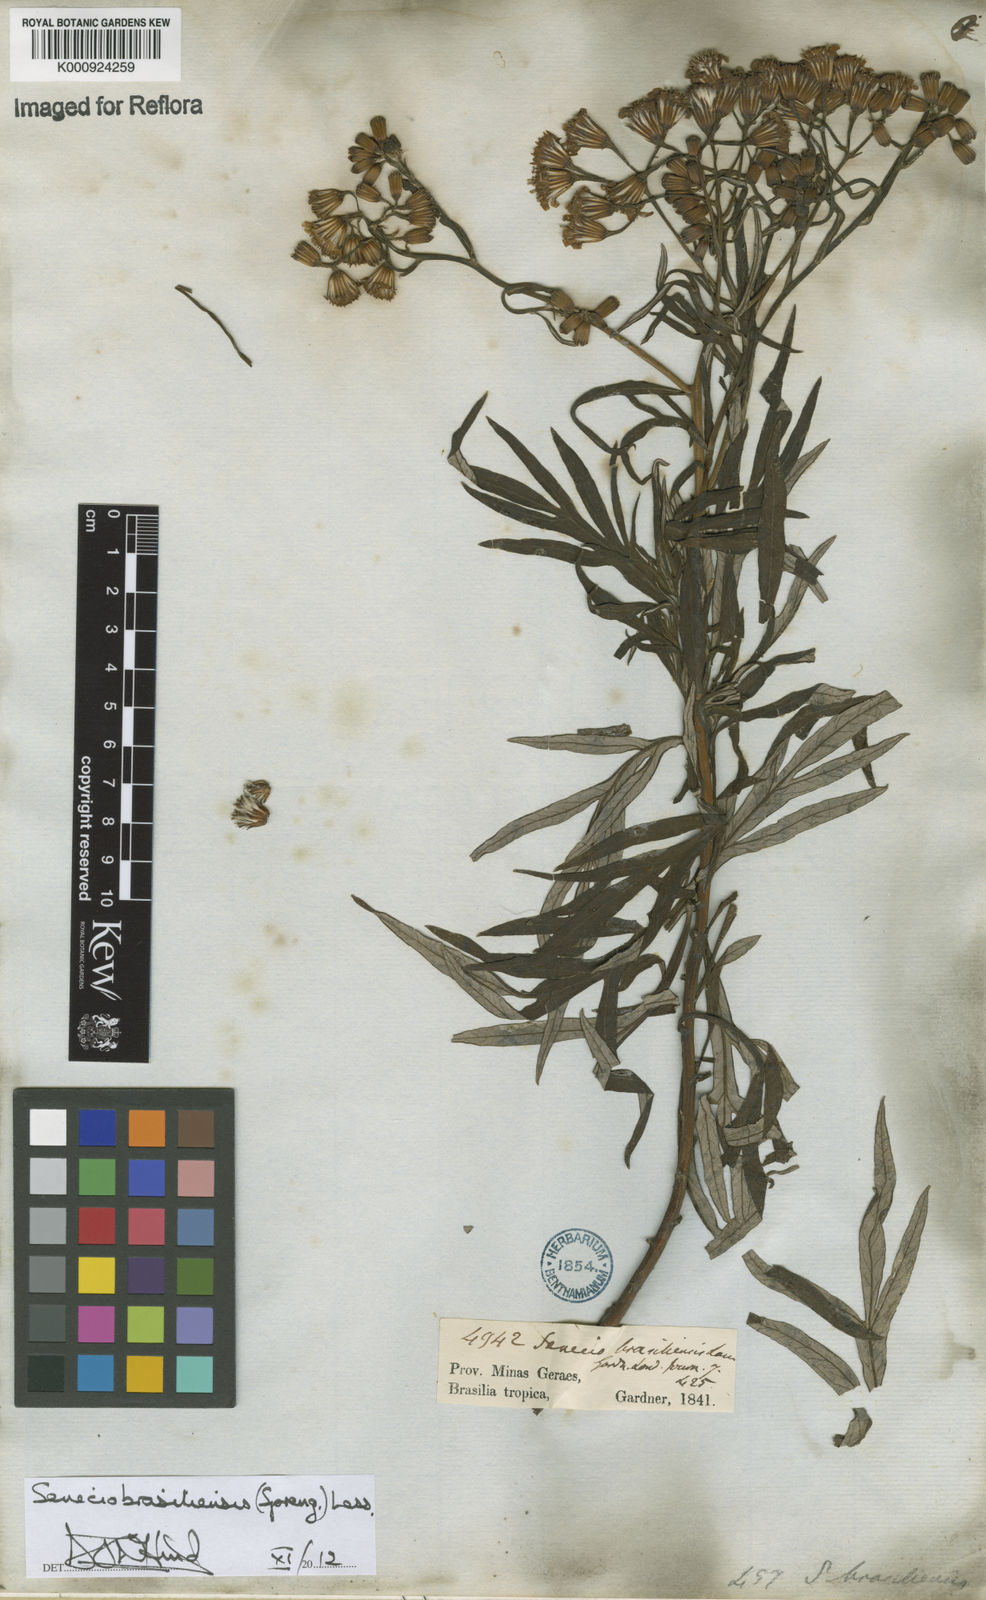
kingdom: Plantae
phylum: Tracheophyta
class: Magnoliopsida
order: Asterales
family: Asteraceae
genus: Senecio
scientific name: Senecio brasiliensis
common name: Hemp-leaf ragwort
